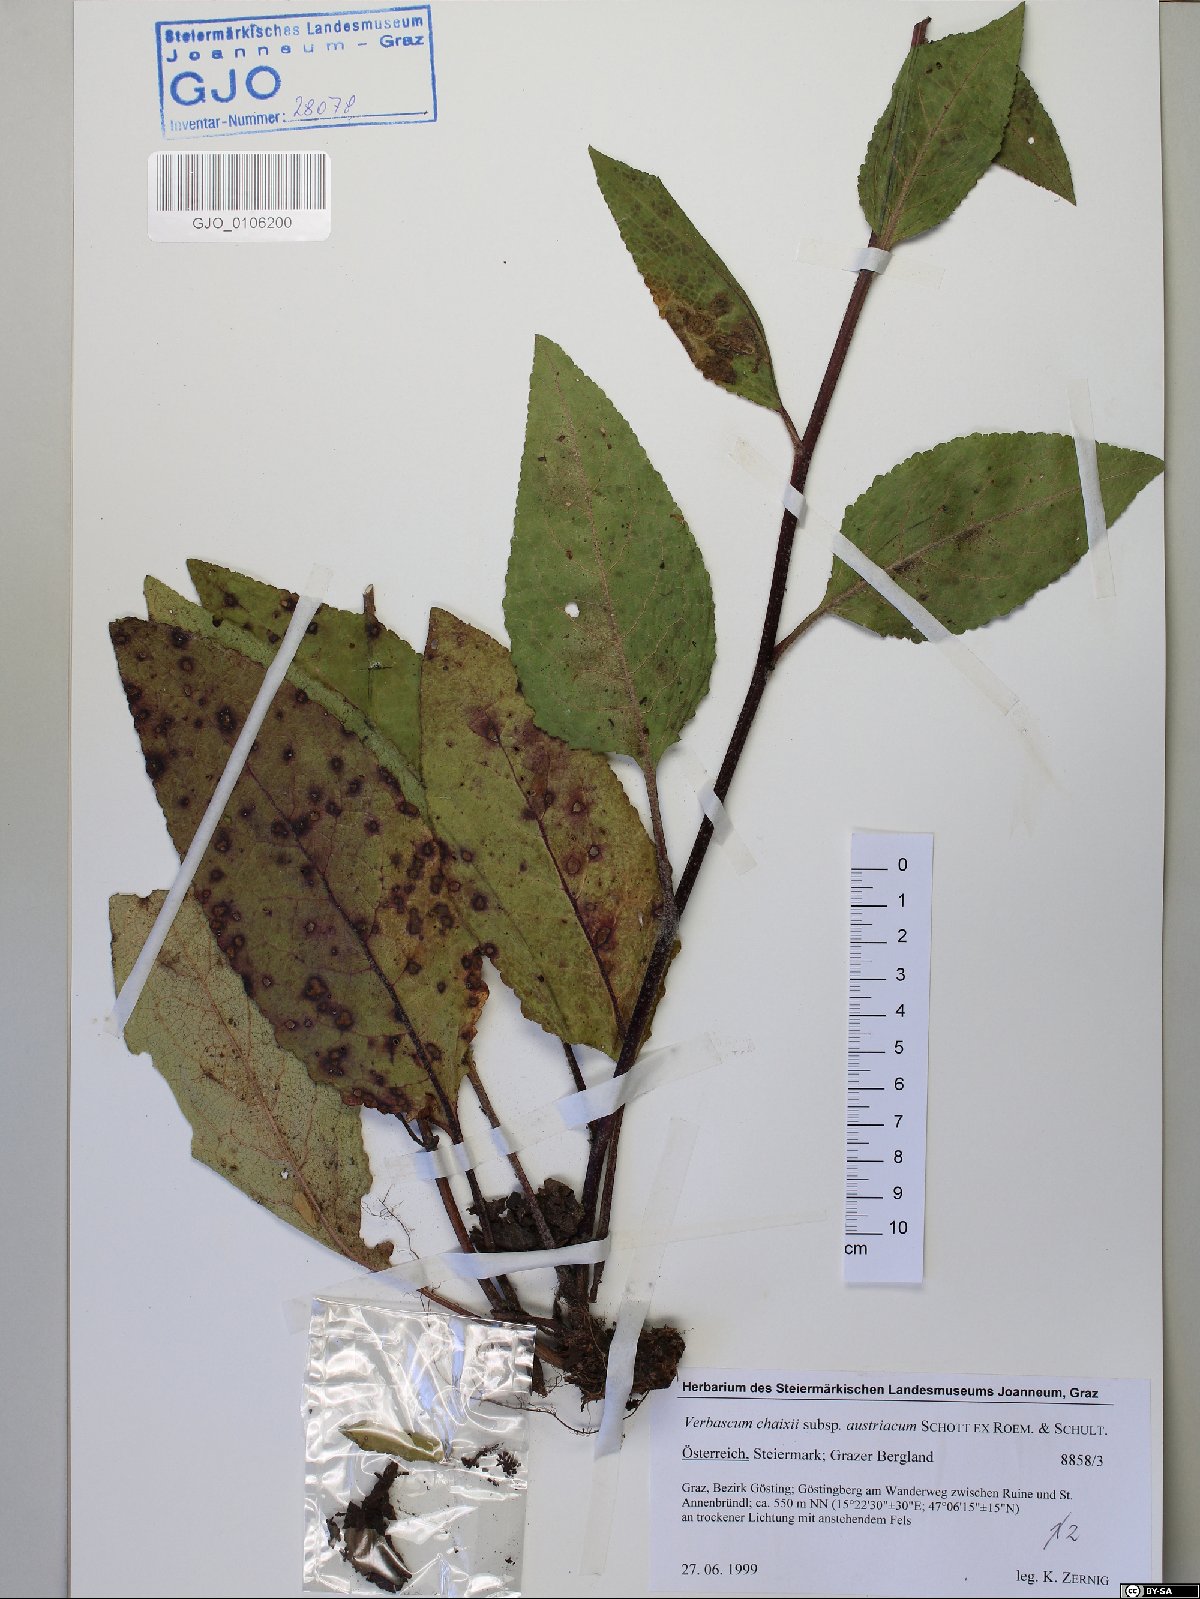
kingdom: Plantae
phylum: Tracheophyta
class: Magnoliopsida
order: Lamiales
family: Scrophulariaceae
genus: Verbascum
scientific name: Verbascum chaixii
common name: Nettle-leaved mullein
